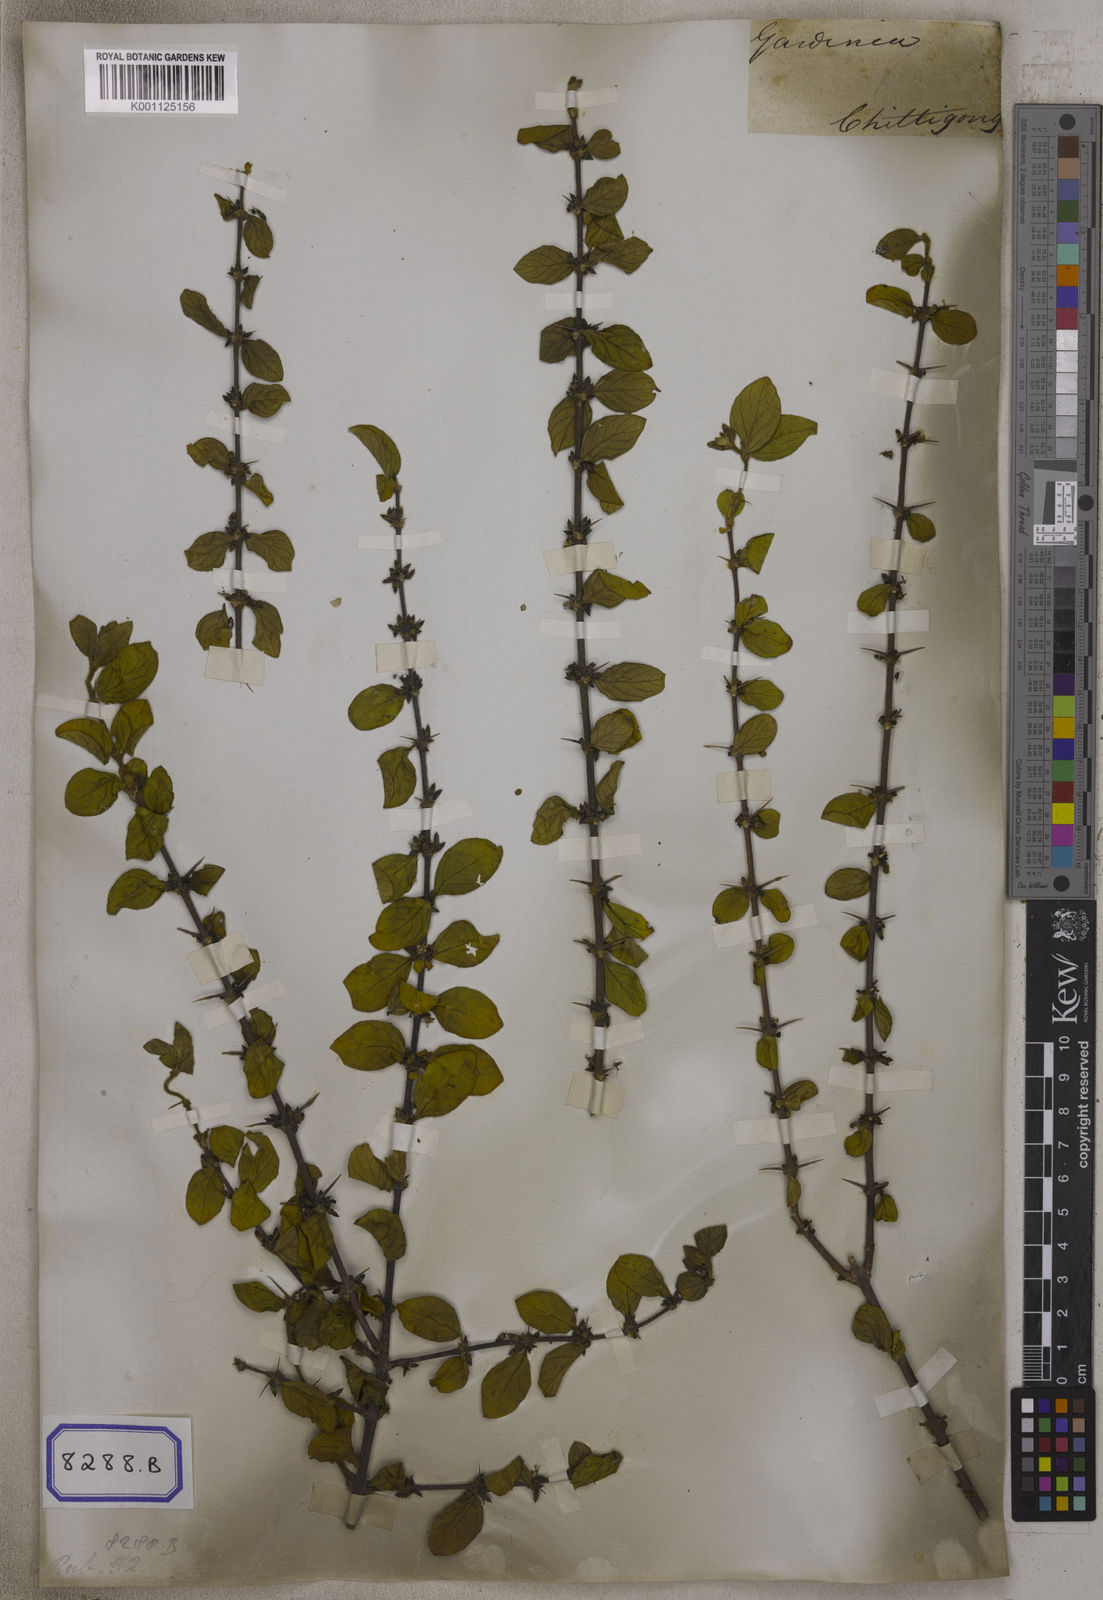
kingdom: Plantae
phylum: Tracheophyta
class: Magnoliopsida
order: Gentianales
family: Rubiaceae
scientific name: Rubiaceae
